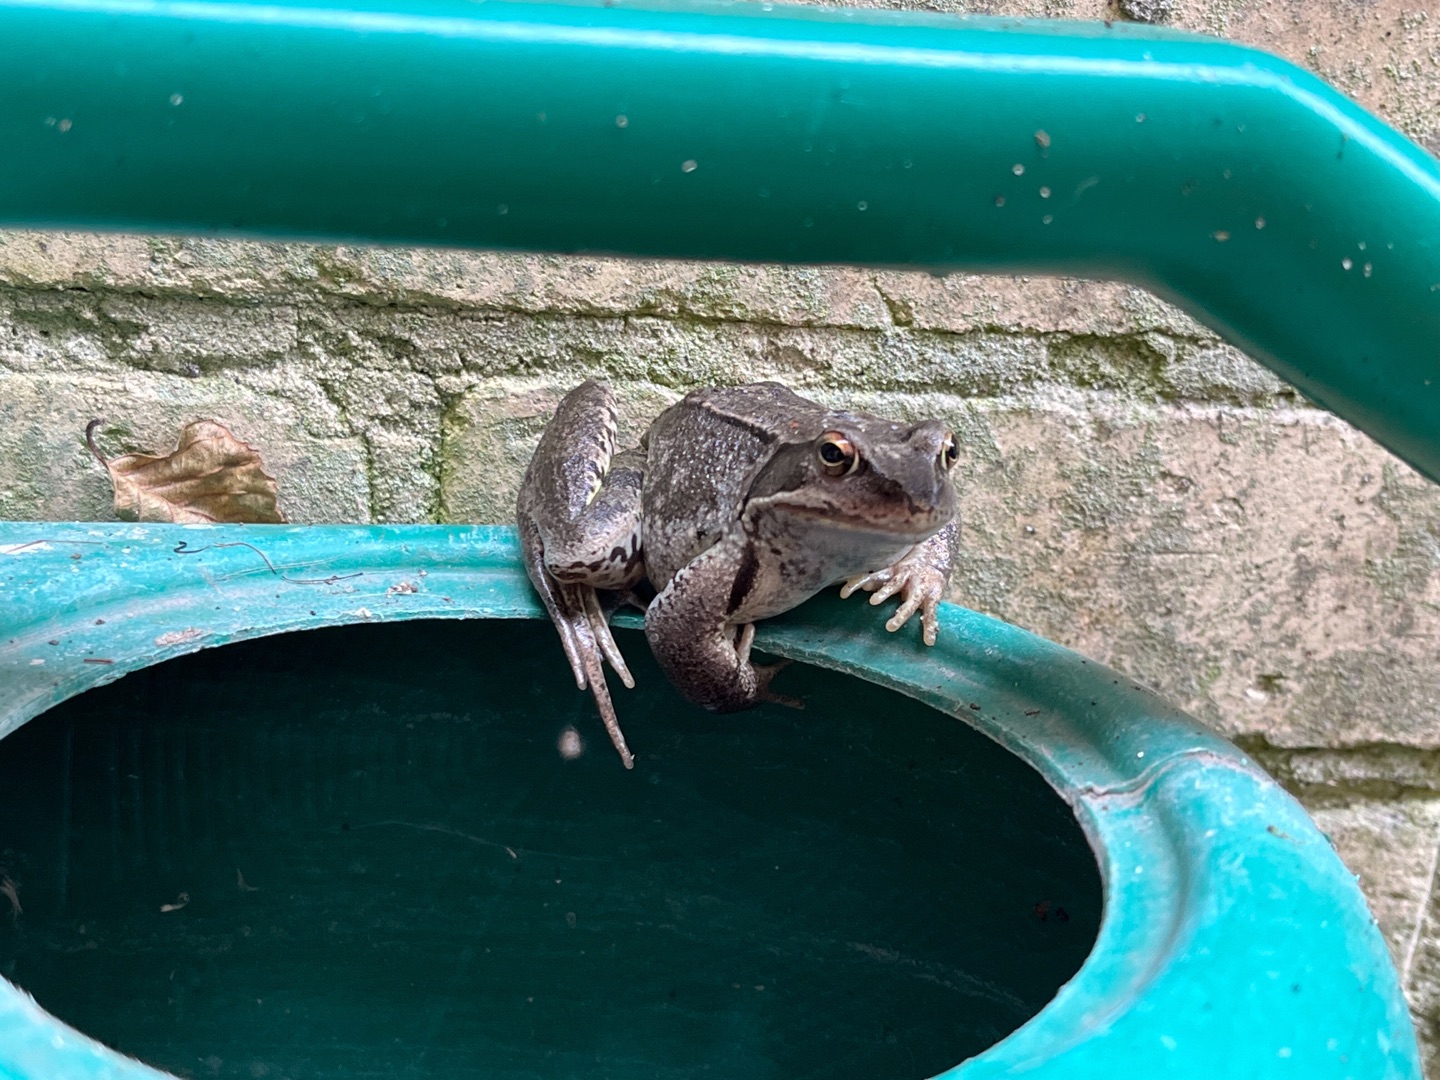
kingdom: Animalia
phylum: Chordata
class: Amphibia
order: Anura
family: Ranidae
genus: Rana
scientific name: Rana temporaria
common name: Butsnudet frø
